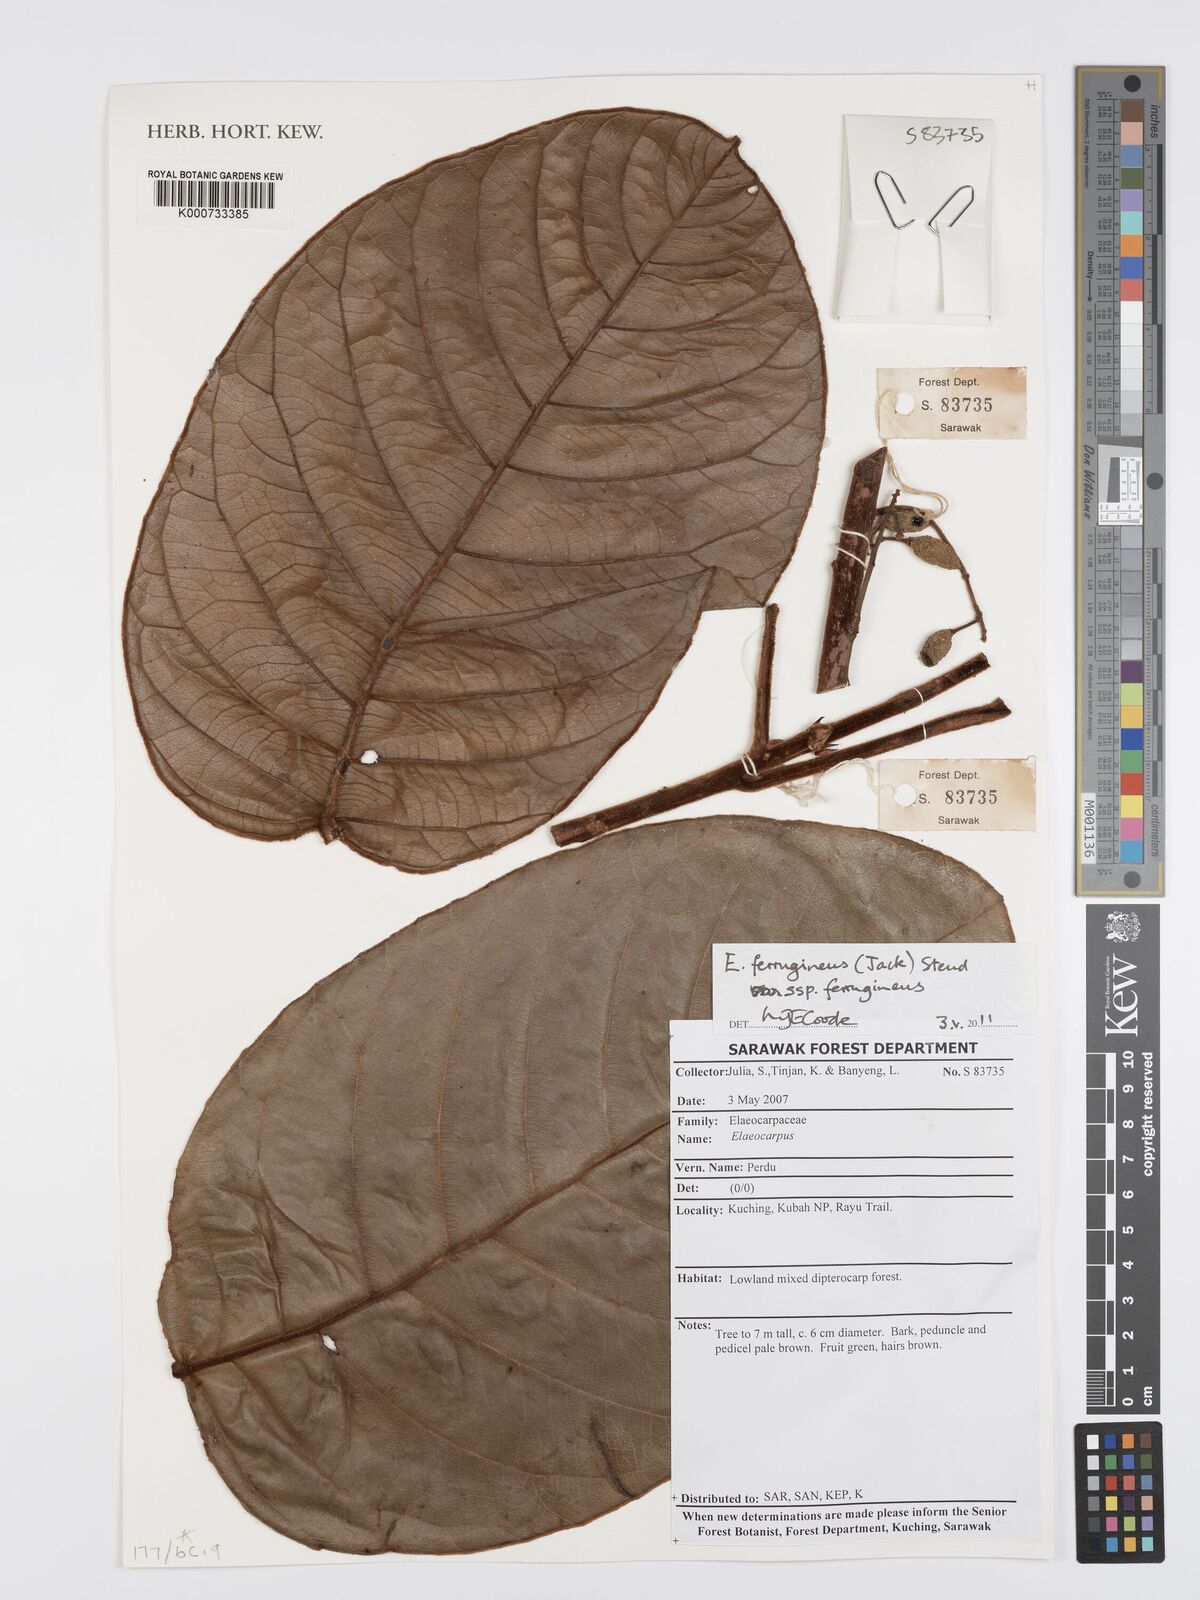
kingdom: Plantae
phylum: Tracheophyta
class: Magnoliopsida
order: Oxalidales
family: Elaeocarpaceae
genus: Elaeocarpus
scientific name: Elaeocarpus ferrugineus
